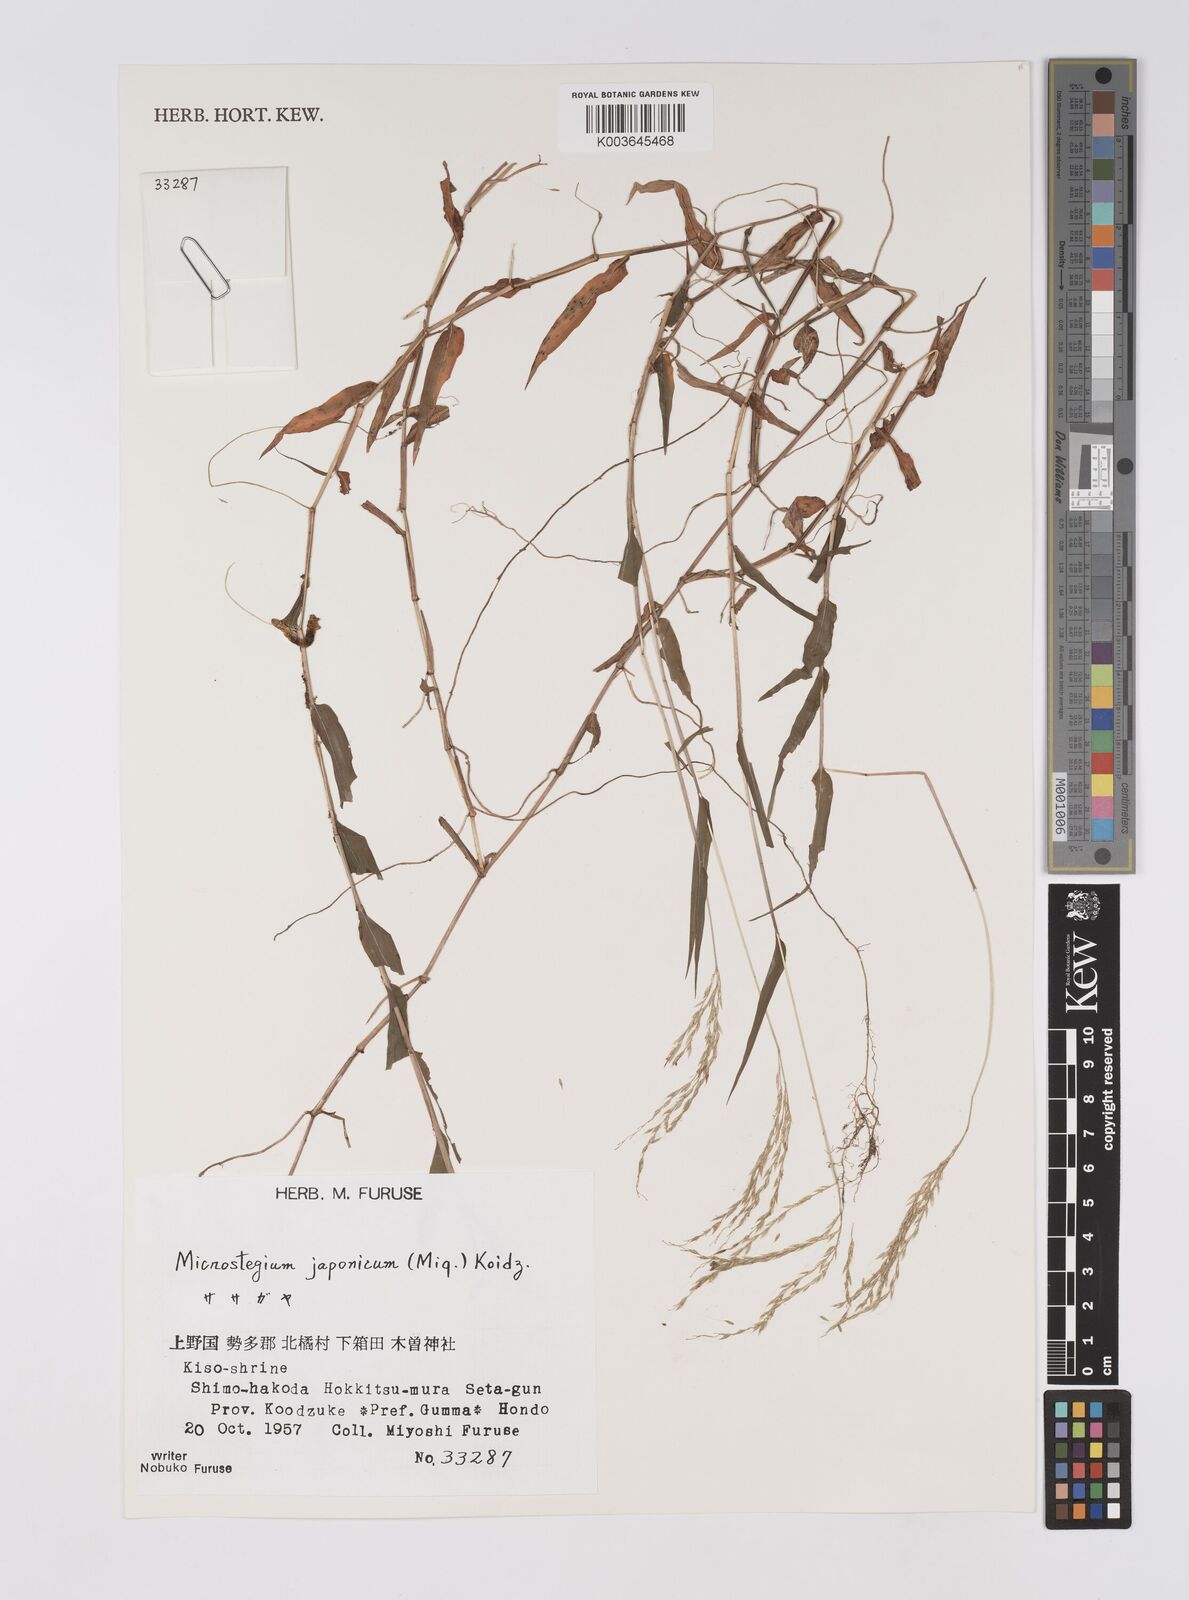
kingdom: Plantae
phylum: Tracheophyta
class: Liliopsida
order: Poales
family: Poaceae
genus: Microstegium
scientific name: Microstegium japonicum
